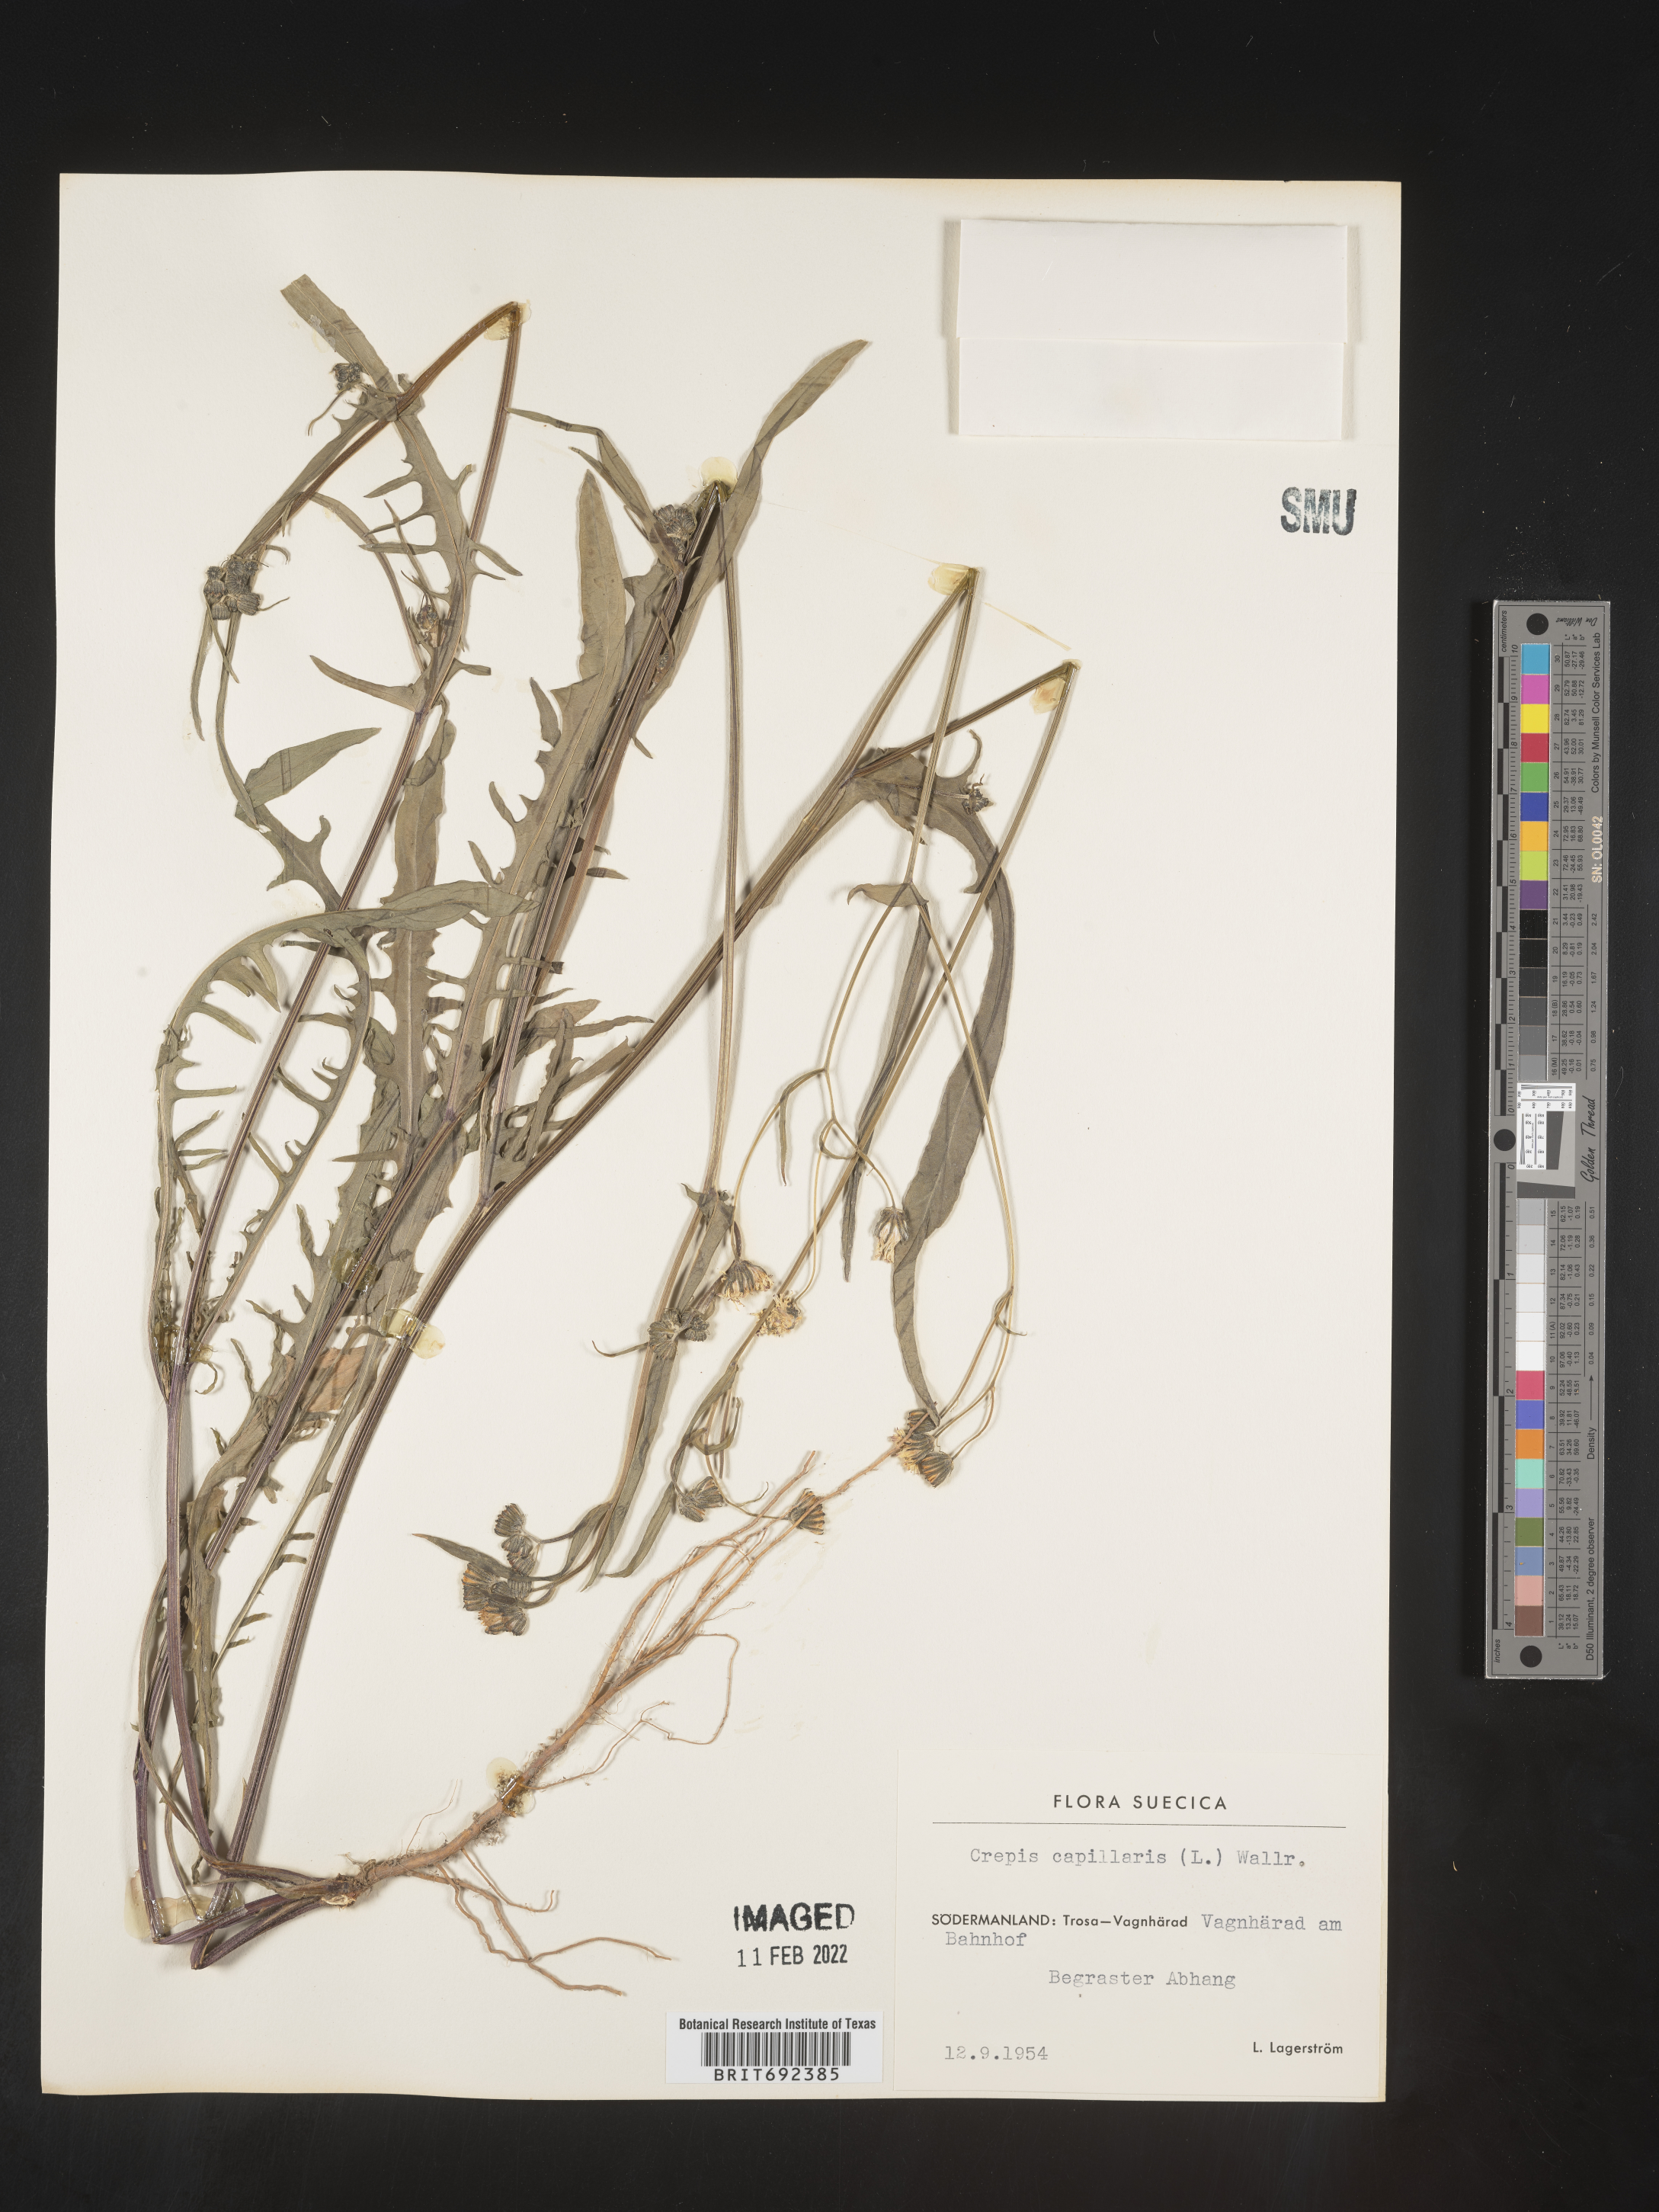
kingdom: Plantae
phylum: Tracheophyta
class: Magnoliopsida
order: Asterales
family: Asteraceae
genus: Crepis
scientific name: Crepis
